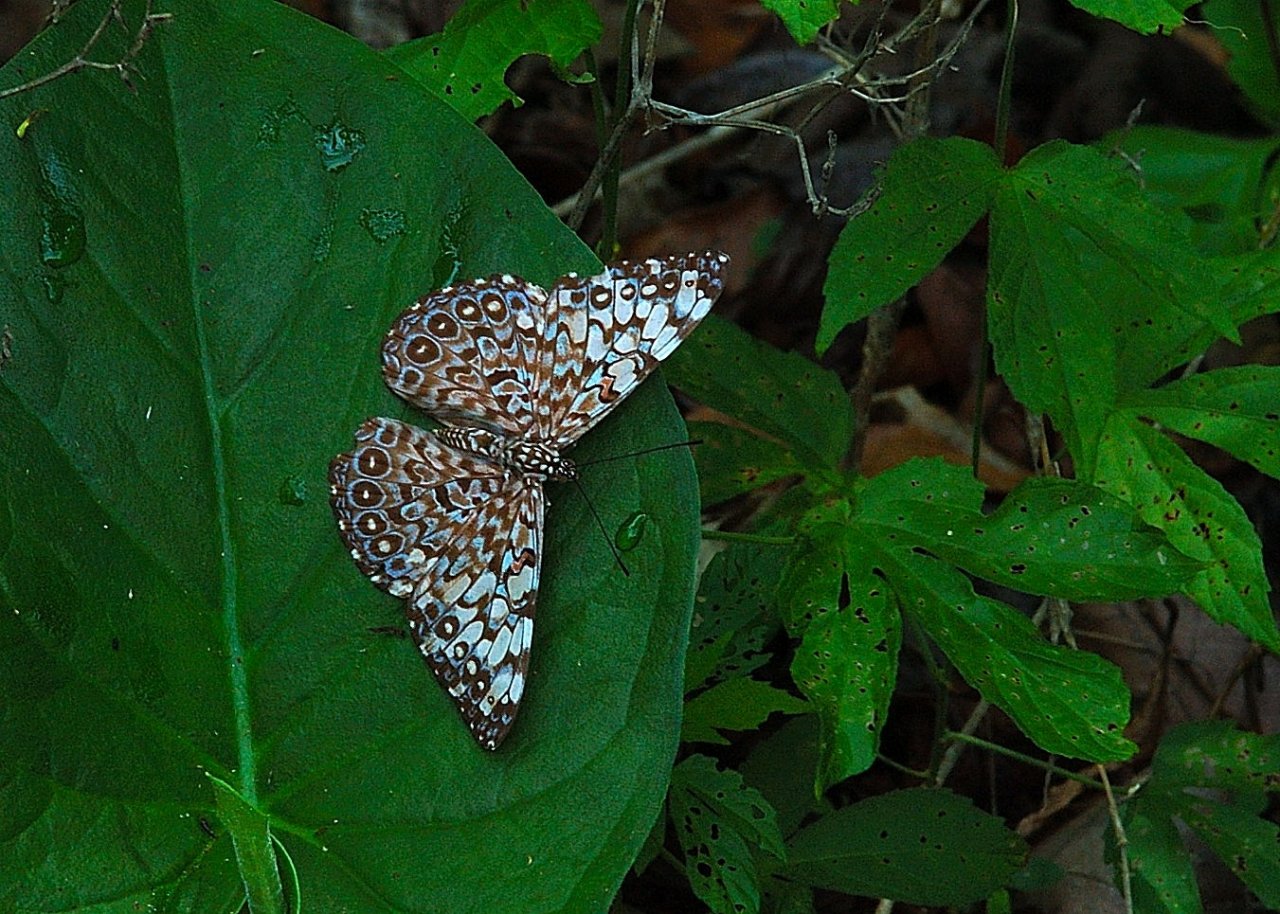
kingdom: Animalia
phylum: Arthropoda
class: Insecta
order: Lepidoptera
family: Nymphalidae
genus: Hamadryas
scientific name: Hamadryas feronia
